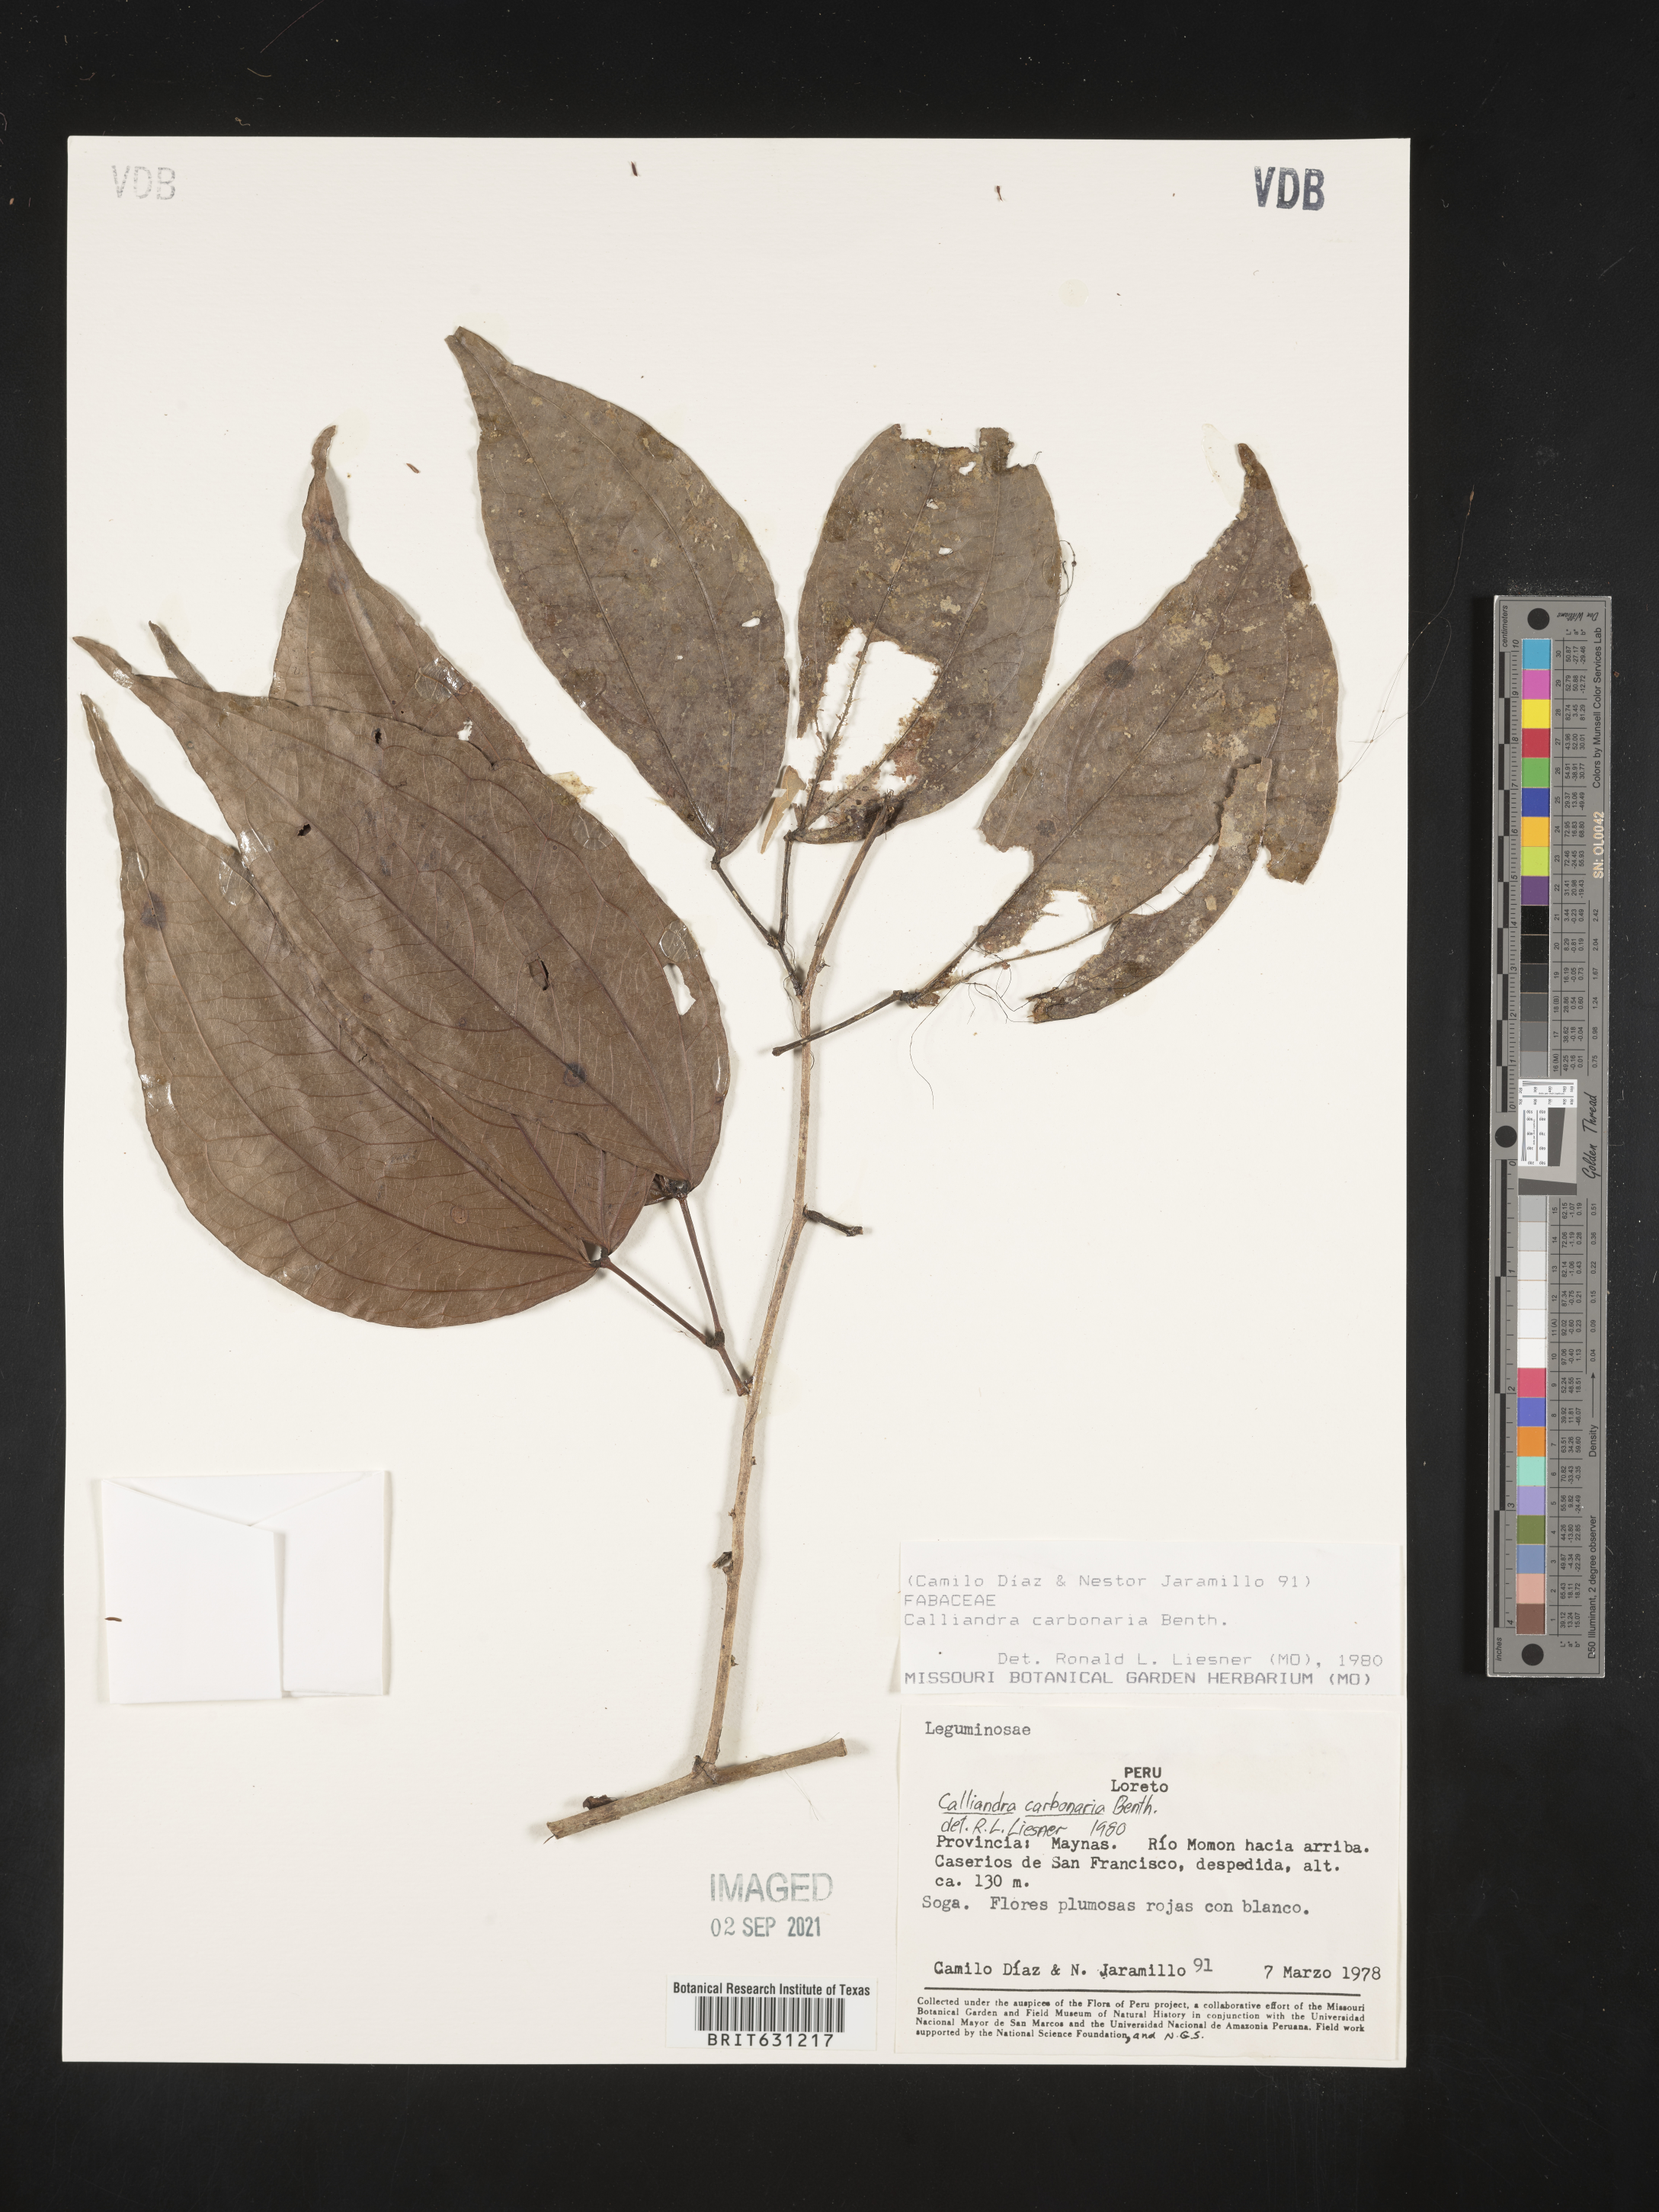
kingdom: Plantae
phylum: Tracheophyta
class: Magnoliopsida
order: Fabales
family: Fabaceae
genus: Calliandra
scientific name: Calliandra trinervia
